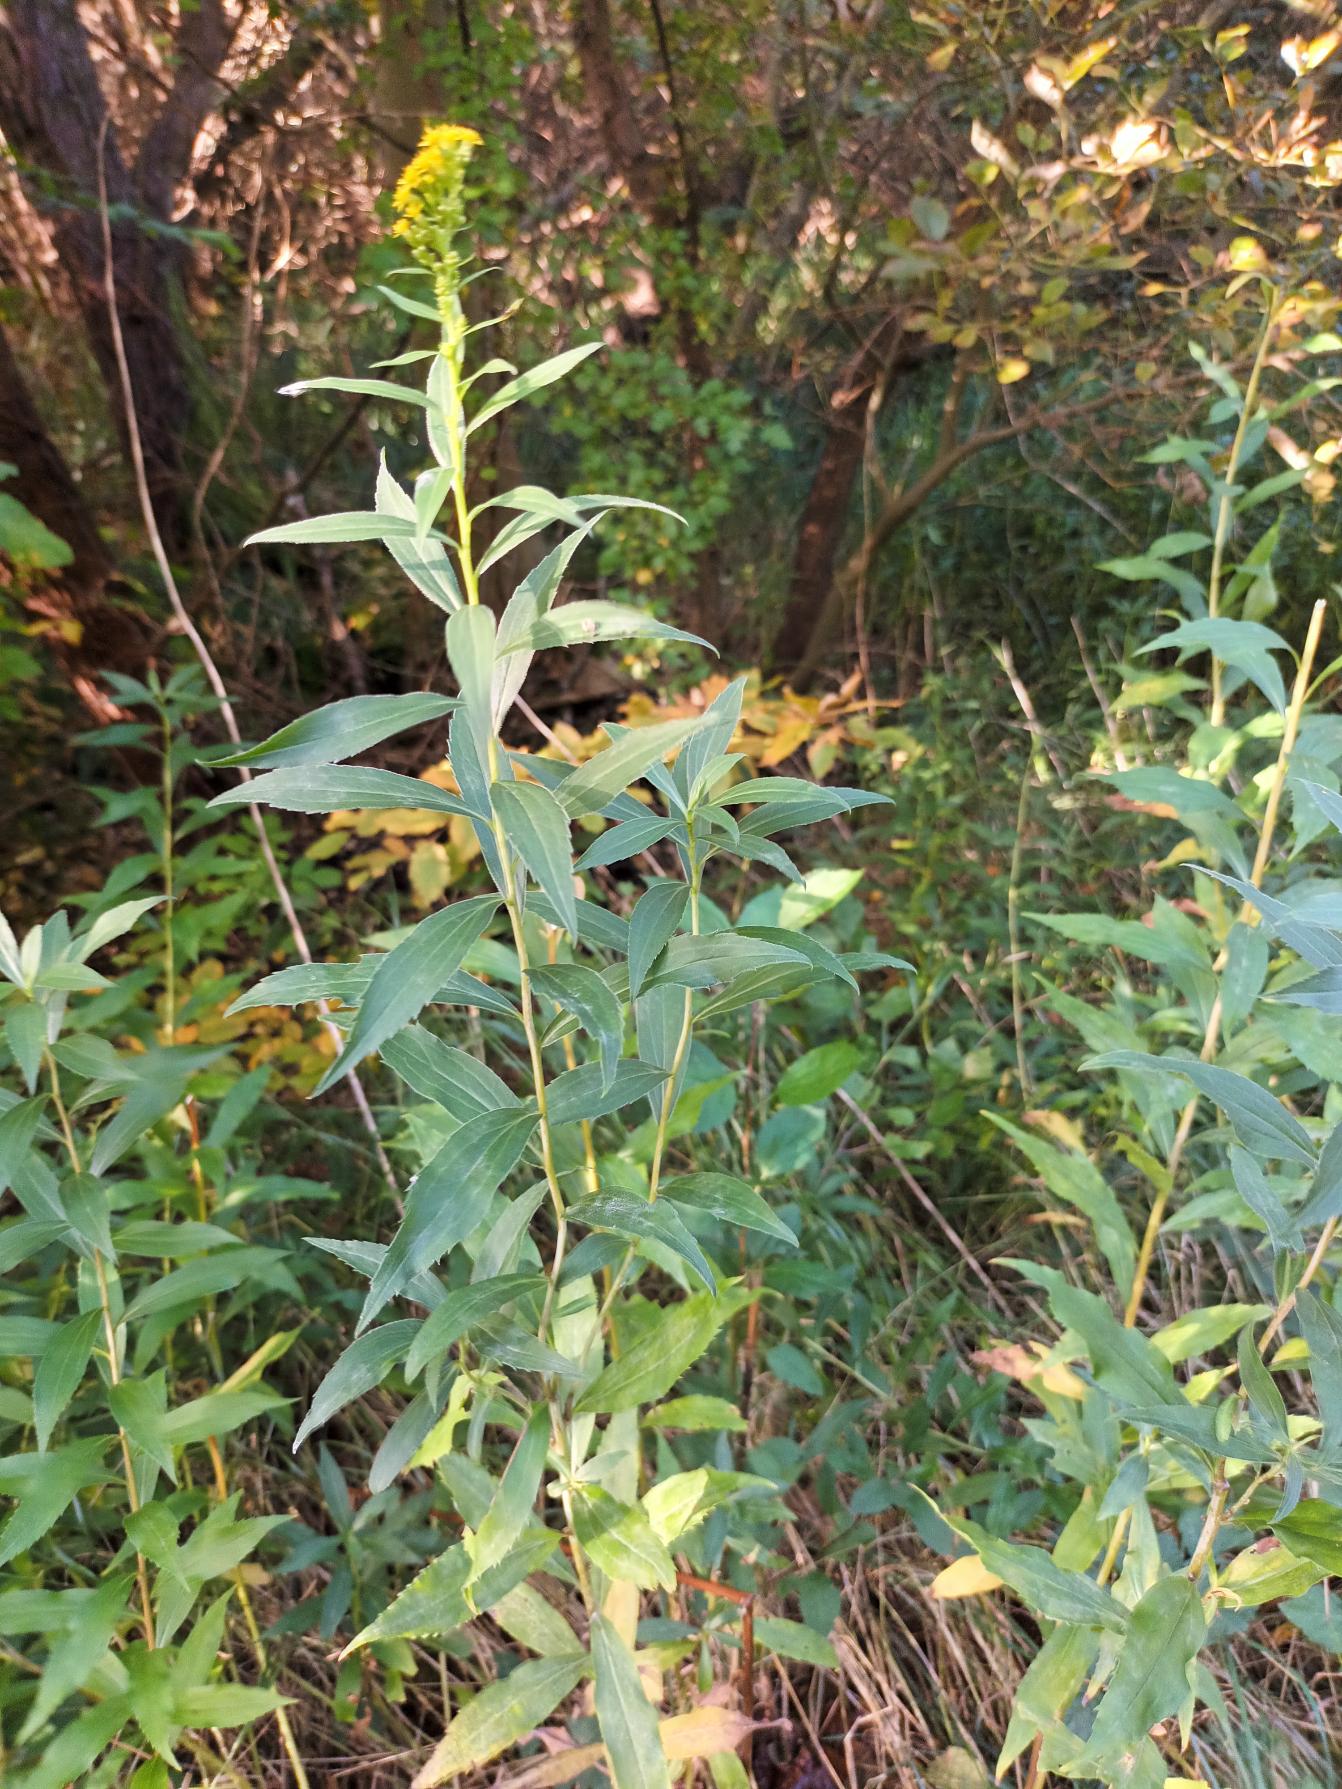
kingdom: Plantae
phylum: Tracheophyta
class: Magnoliopsida
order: Asterales
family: Asteraceae
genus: Solidago
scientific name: Solidago gigantea
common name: Sildig gyldenris
